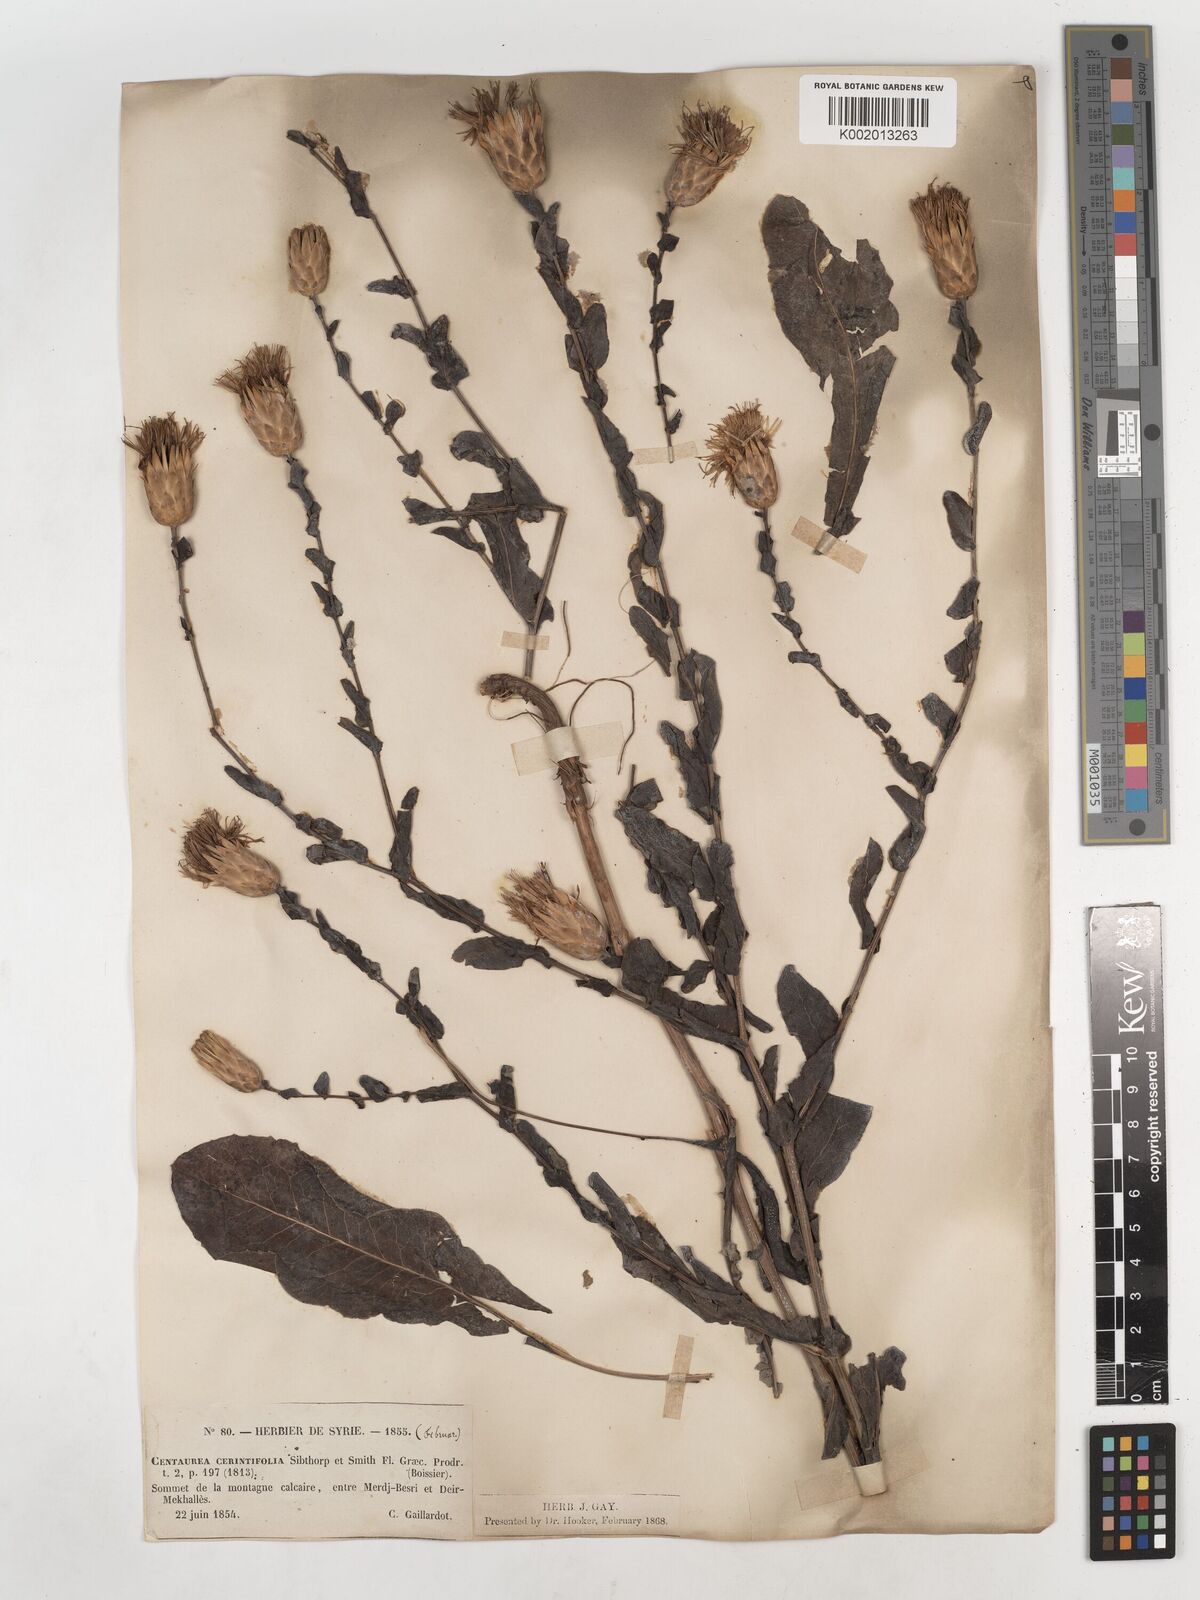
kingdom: Plantae
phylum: Tracheophyta
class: Magnoliopsida
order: Asterales
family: Asteraceae
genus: Klasea
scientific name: Klasea cerinthifolia
